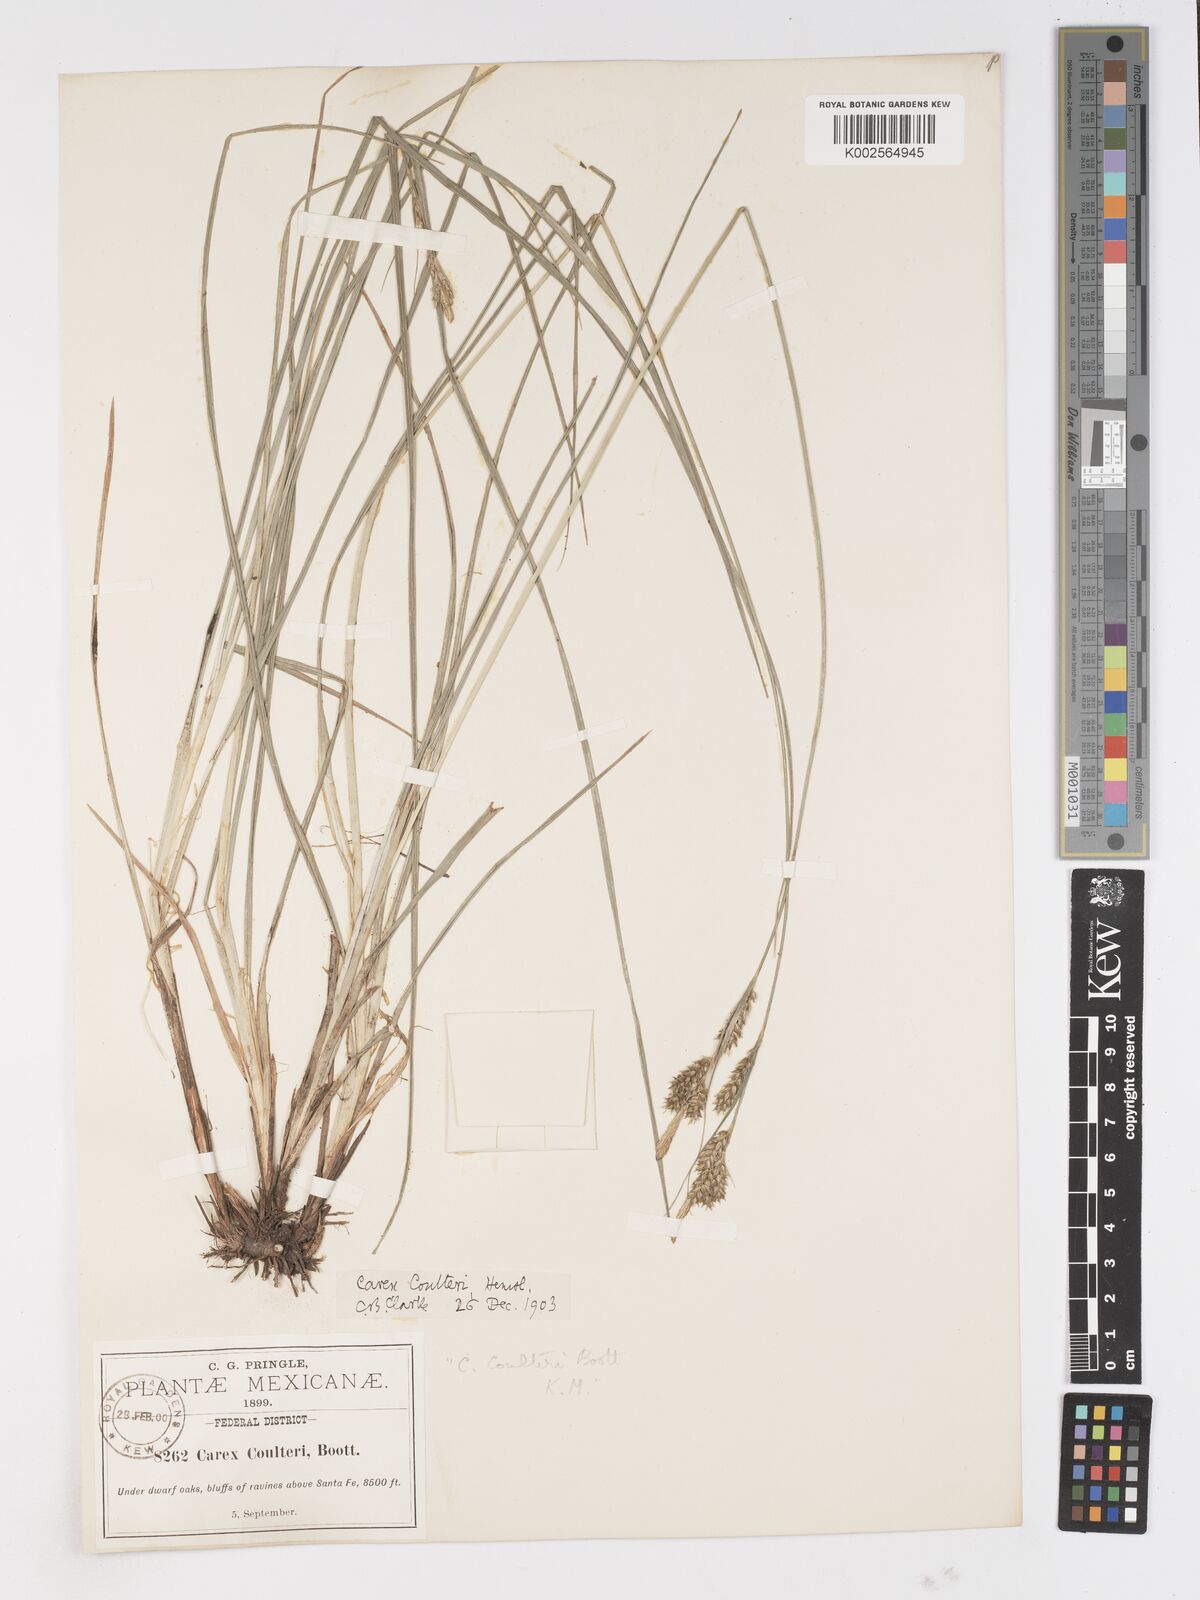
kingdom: Plantae
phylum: Tracheophyta
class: Liliopsida
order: Poales
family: Cyperaceae
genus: Carex
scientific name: Carex coulteri
